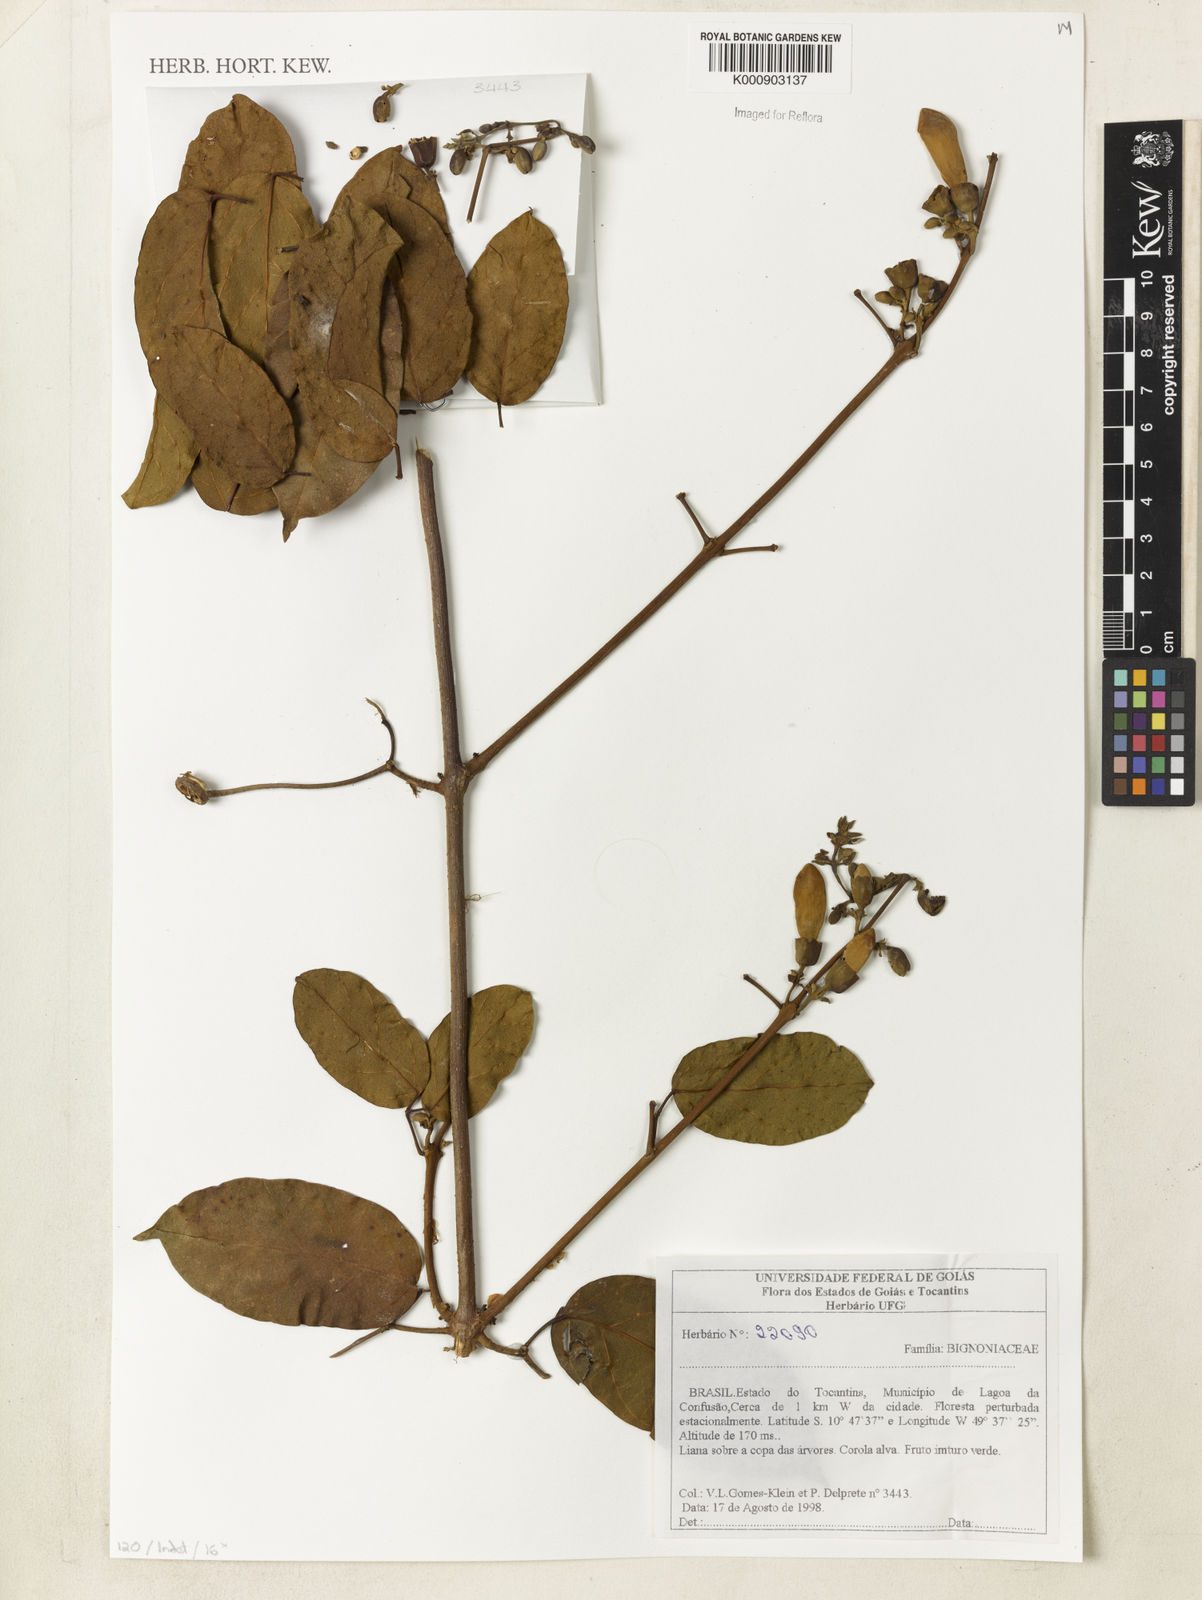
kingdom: Plantae
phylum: Tracheophyta
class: Magnoliopsida
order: Lamiales
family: Bignoniaceae
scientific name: Bignoniaceae
